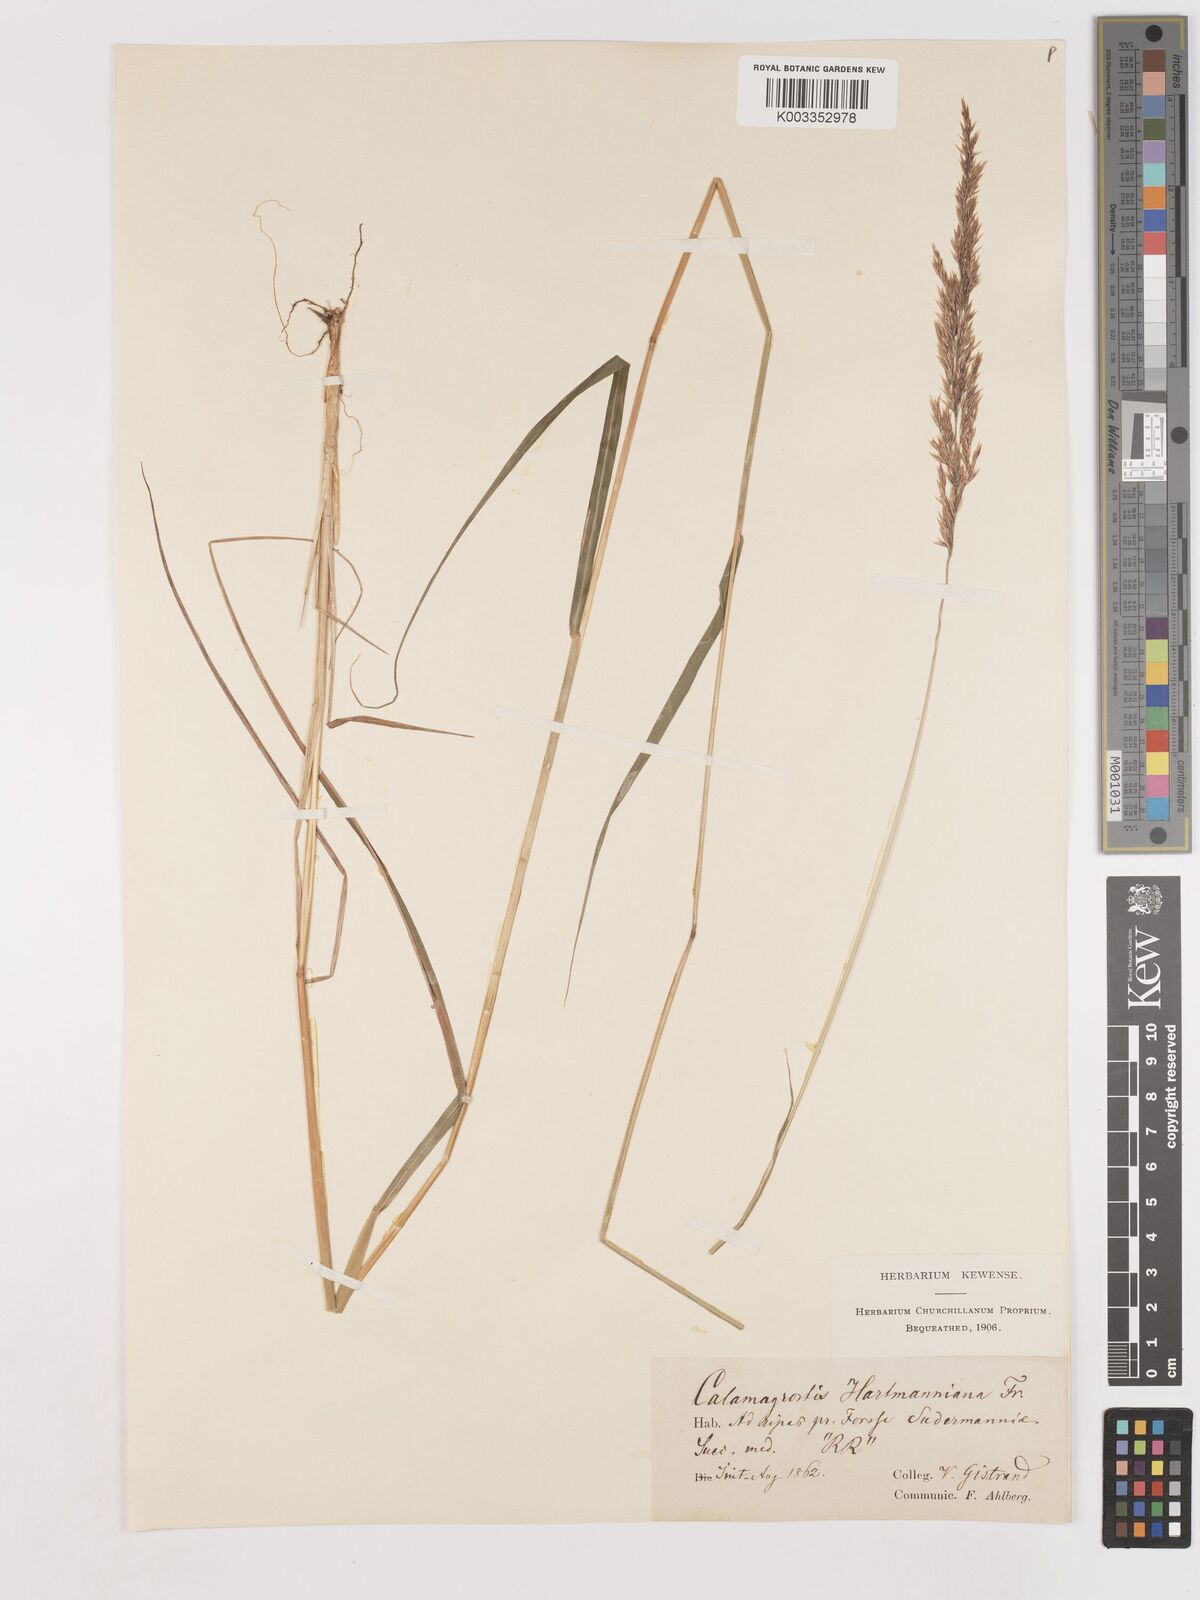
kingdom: Plantae
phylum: Tracheophyta
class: Liliopsida
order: Poales
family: Poaceae
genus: Calamagrostis
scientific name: Calamagrostis canescens
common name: Purple small-reed
